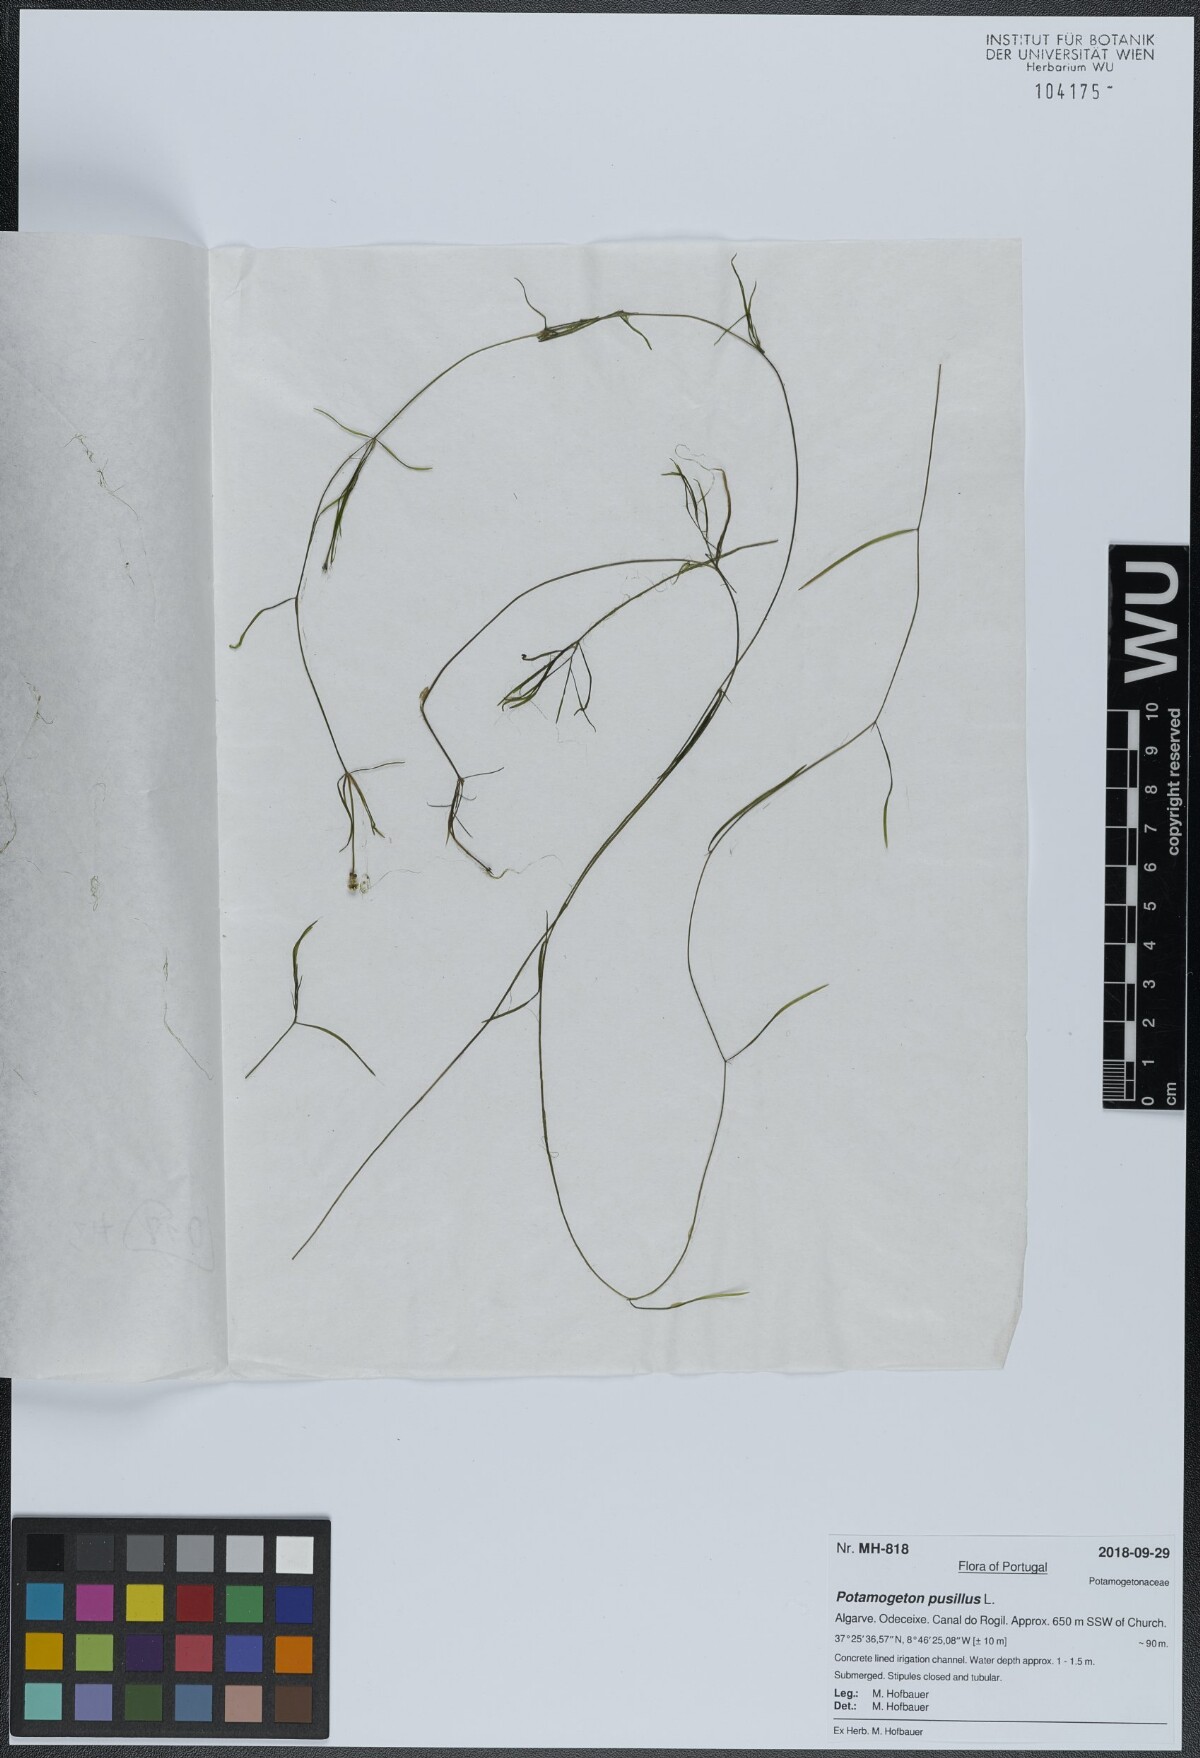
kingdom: Plantae
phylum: Tracheophyta
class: Liliopsida
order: Alismatales
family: Potamogetonaceae
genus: Potamogeton
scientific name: Potamogeton pusillus
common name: Lesser pondweed
